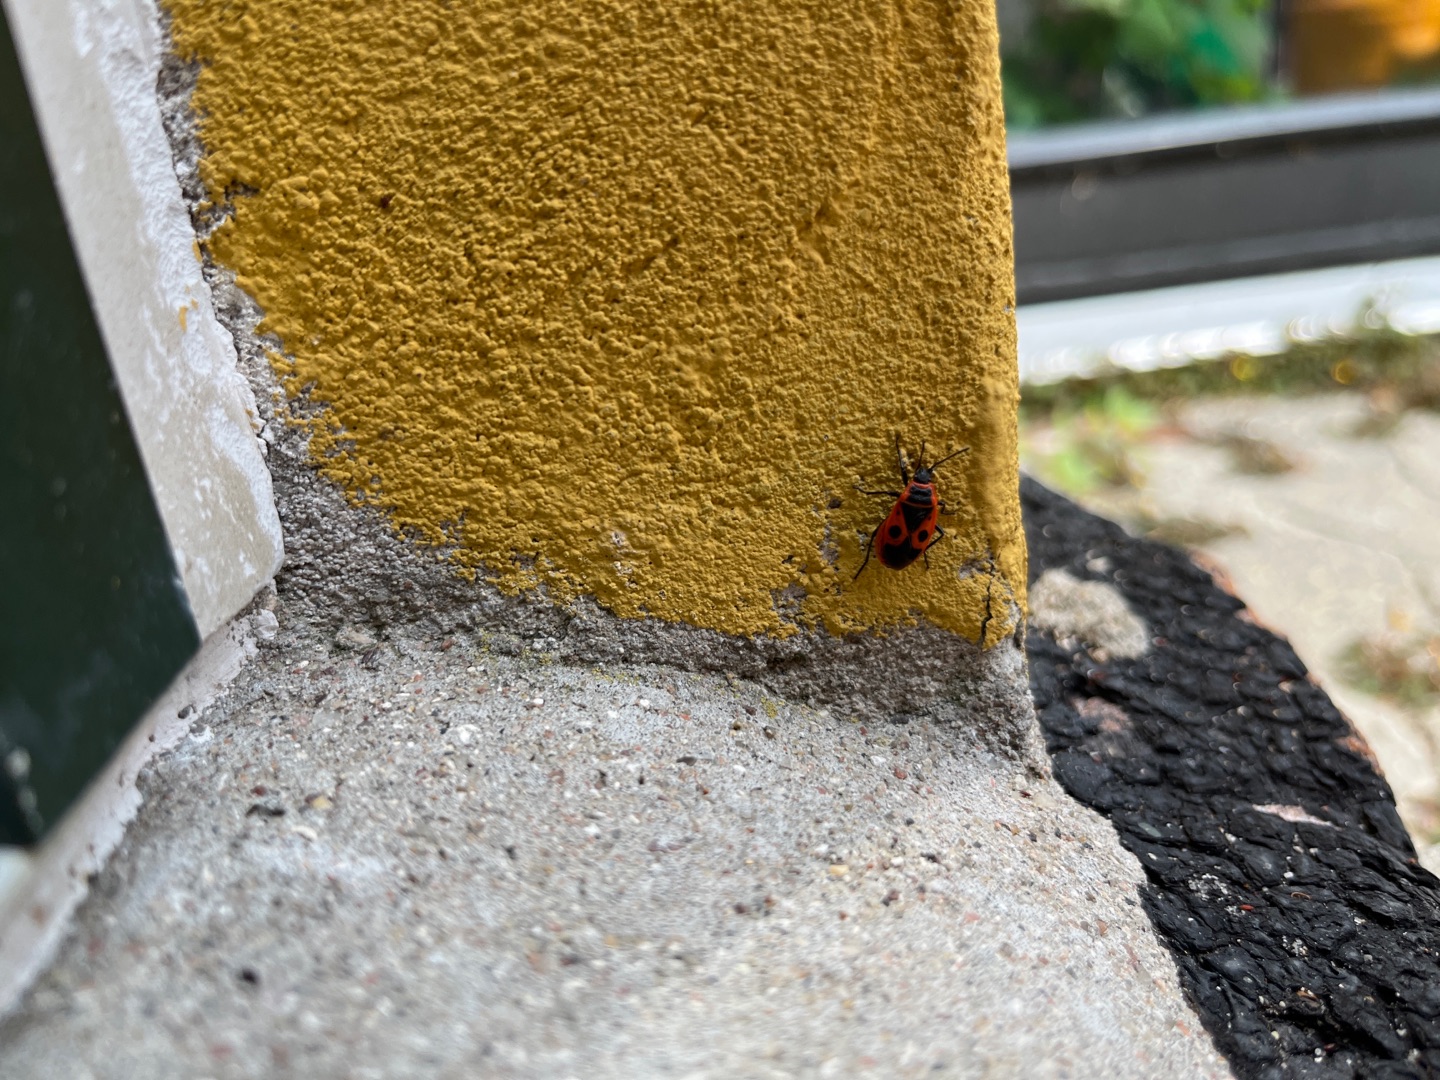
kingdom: Animalia
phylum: Arthropoda
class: Insecta
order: Hemiptera
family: Pyrrhocoridae
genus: Pyrrhocoris
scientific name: Pyrrhocoris apterus
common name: Ildtæge
